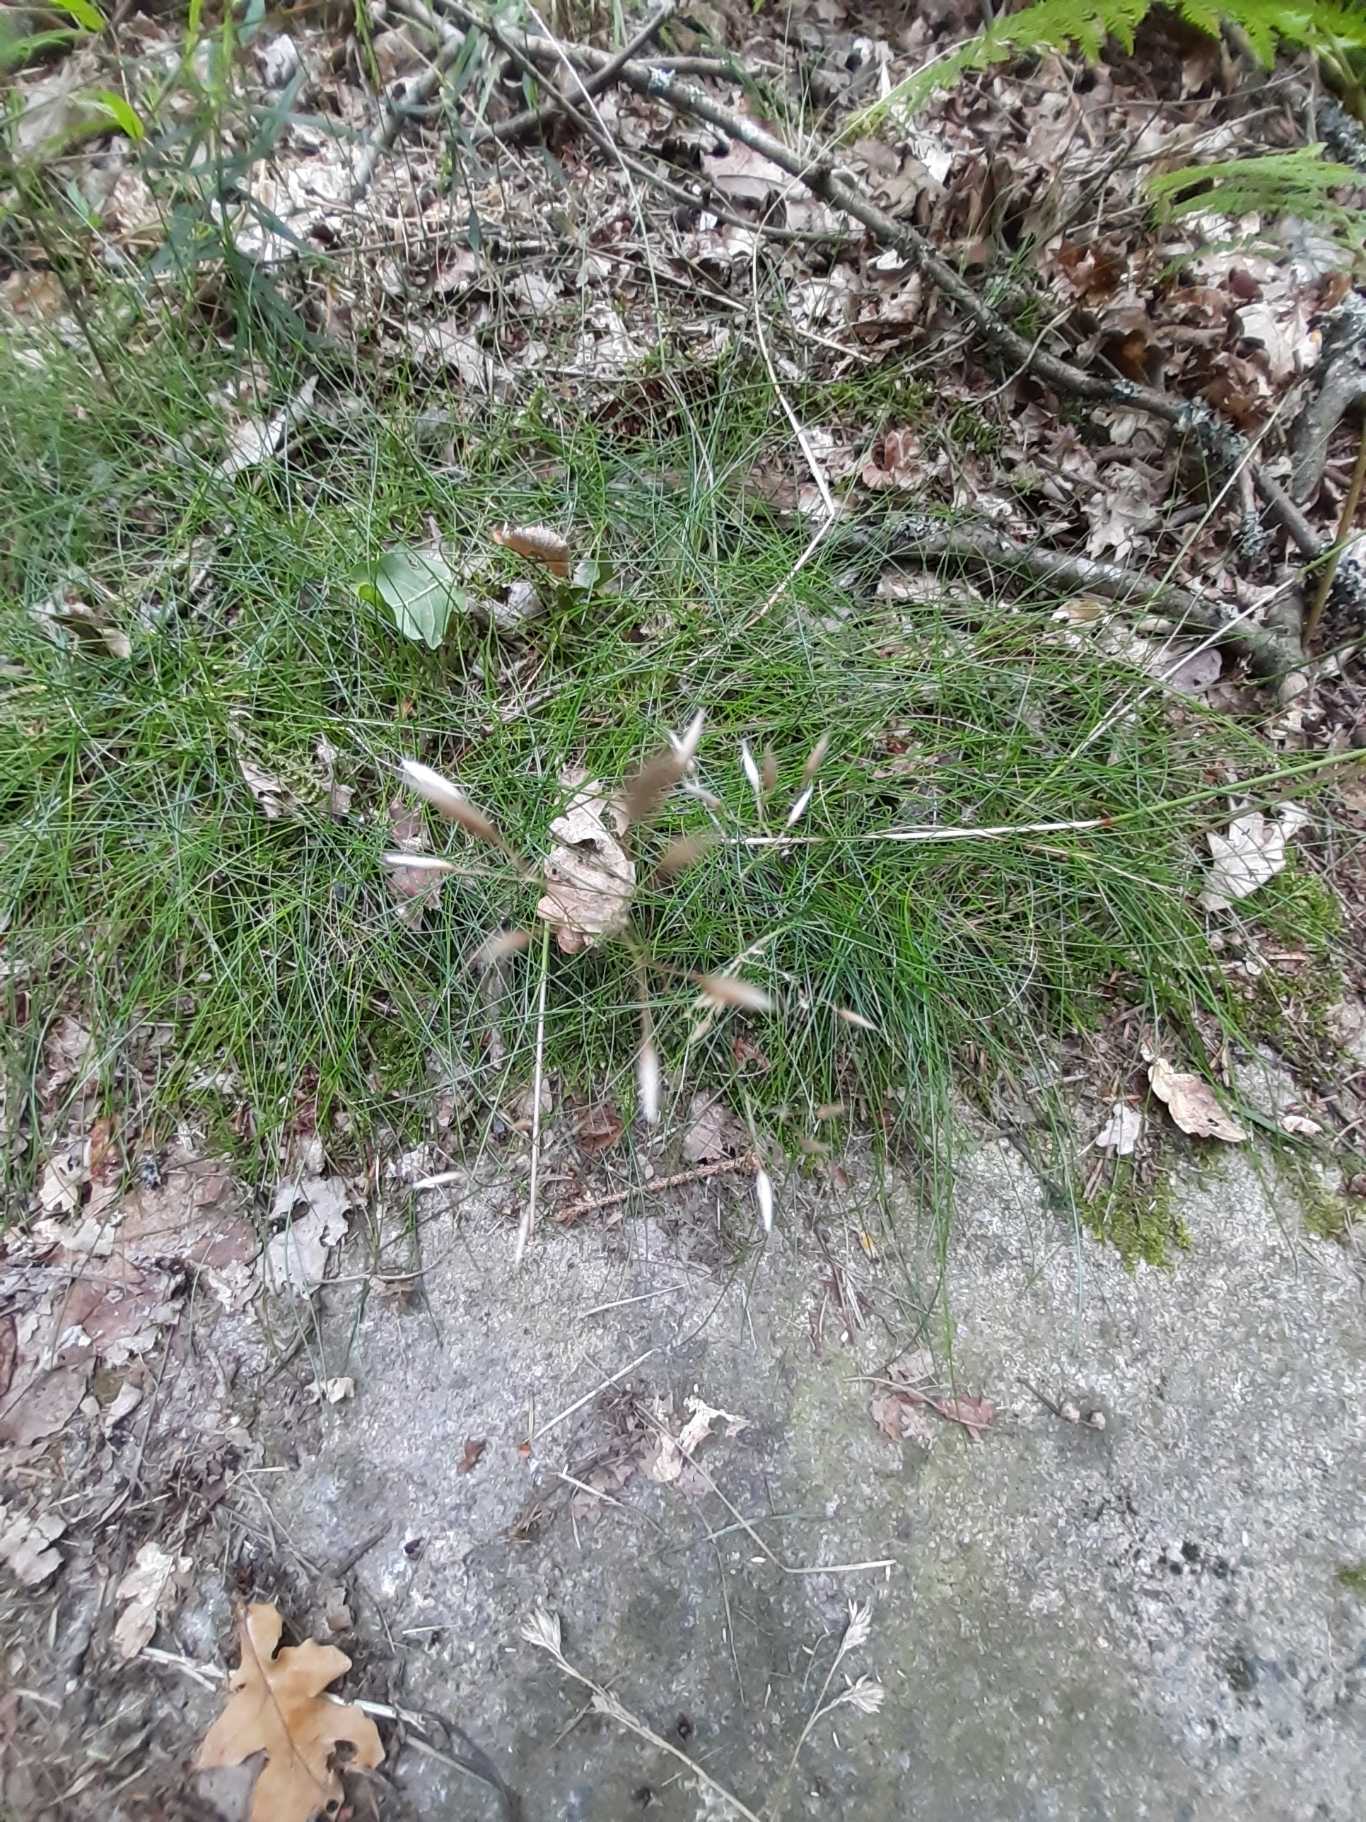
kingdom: Plantae
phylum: Tracheophyta
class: Liliopsida
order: Poales
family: Poaceae
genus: Avenella
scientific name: Avenella flexuosa
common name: Bølget bunke
